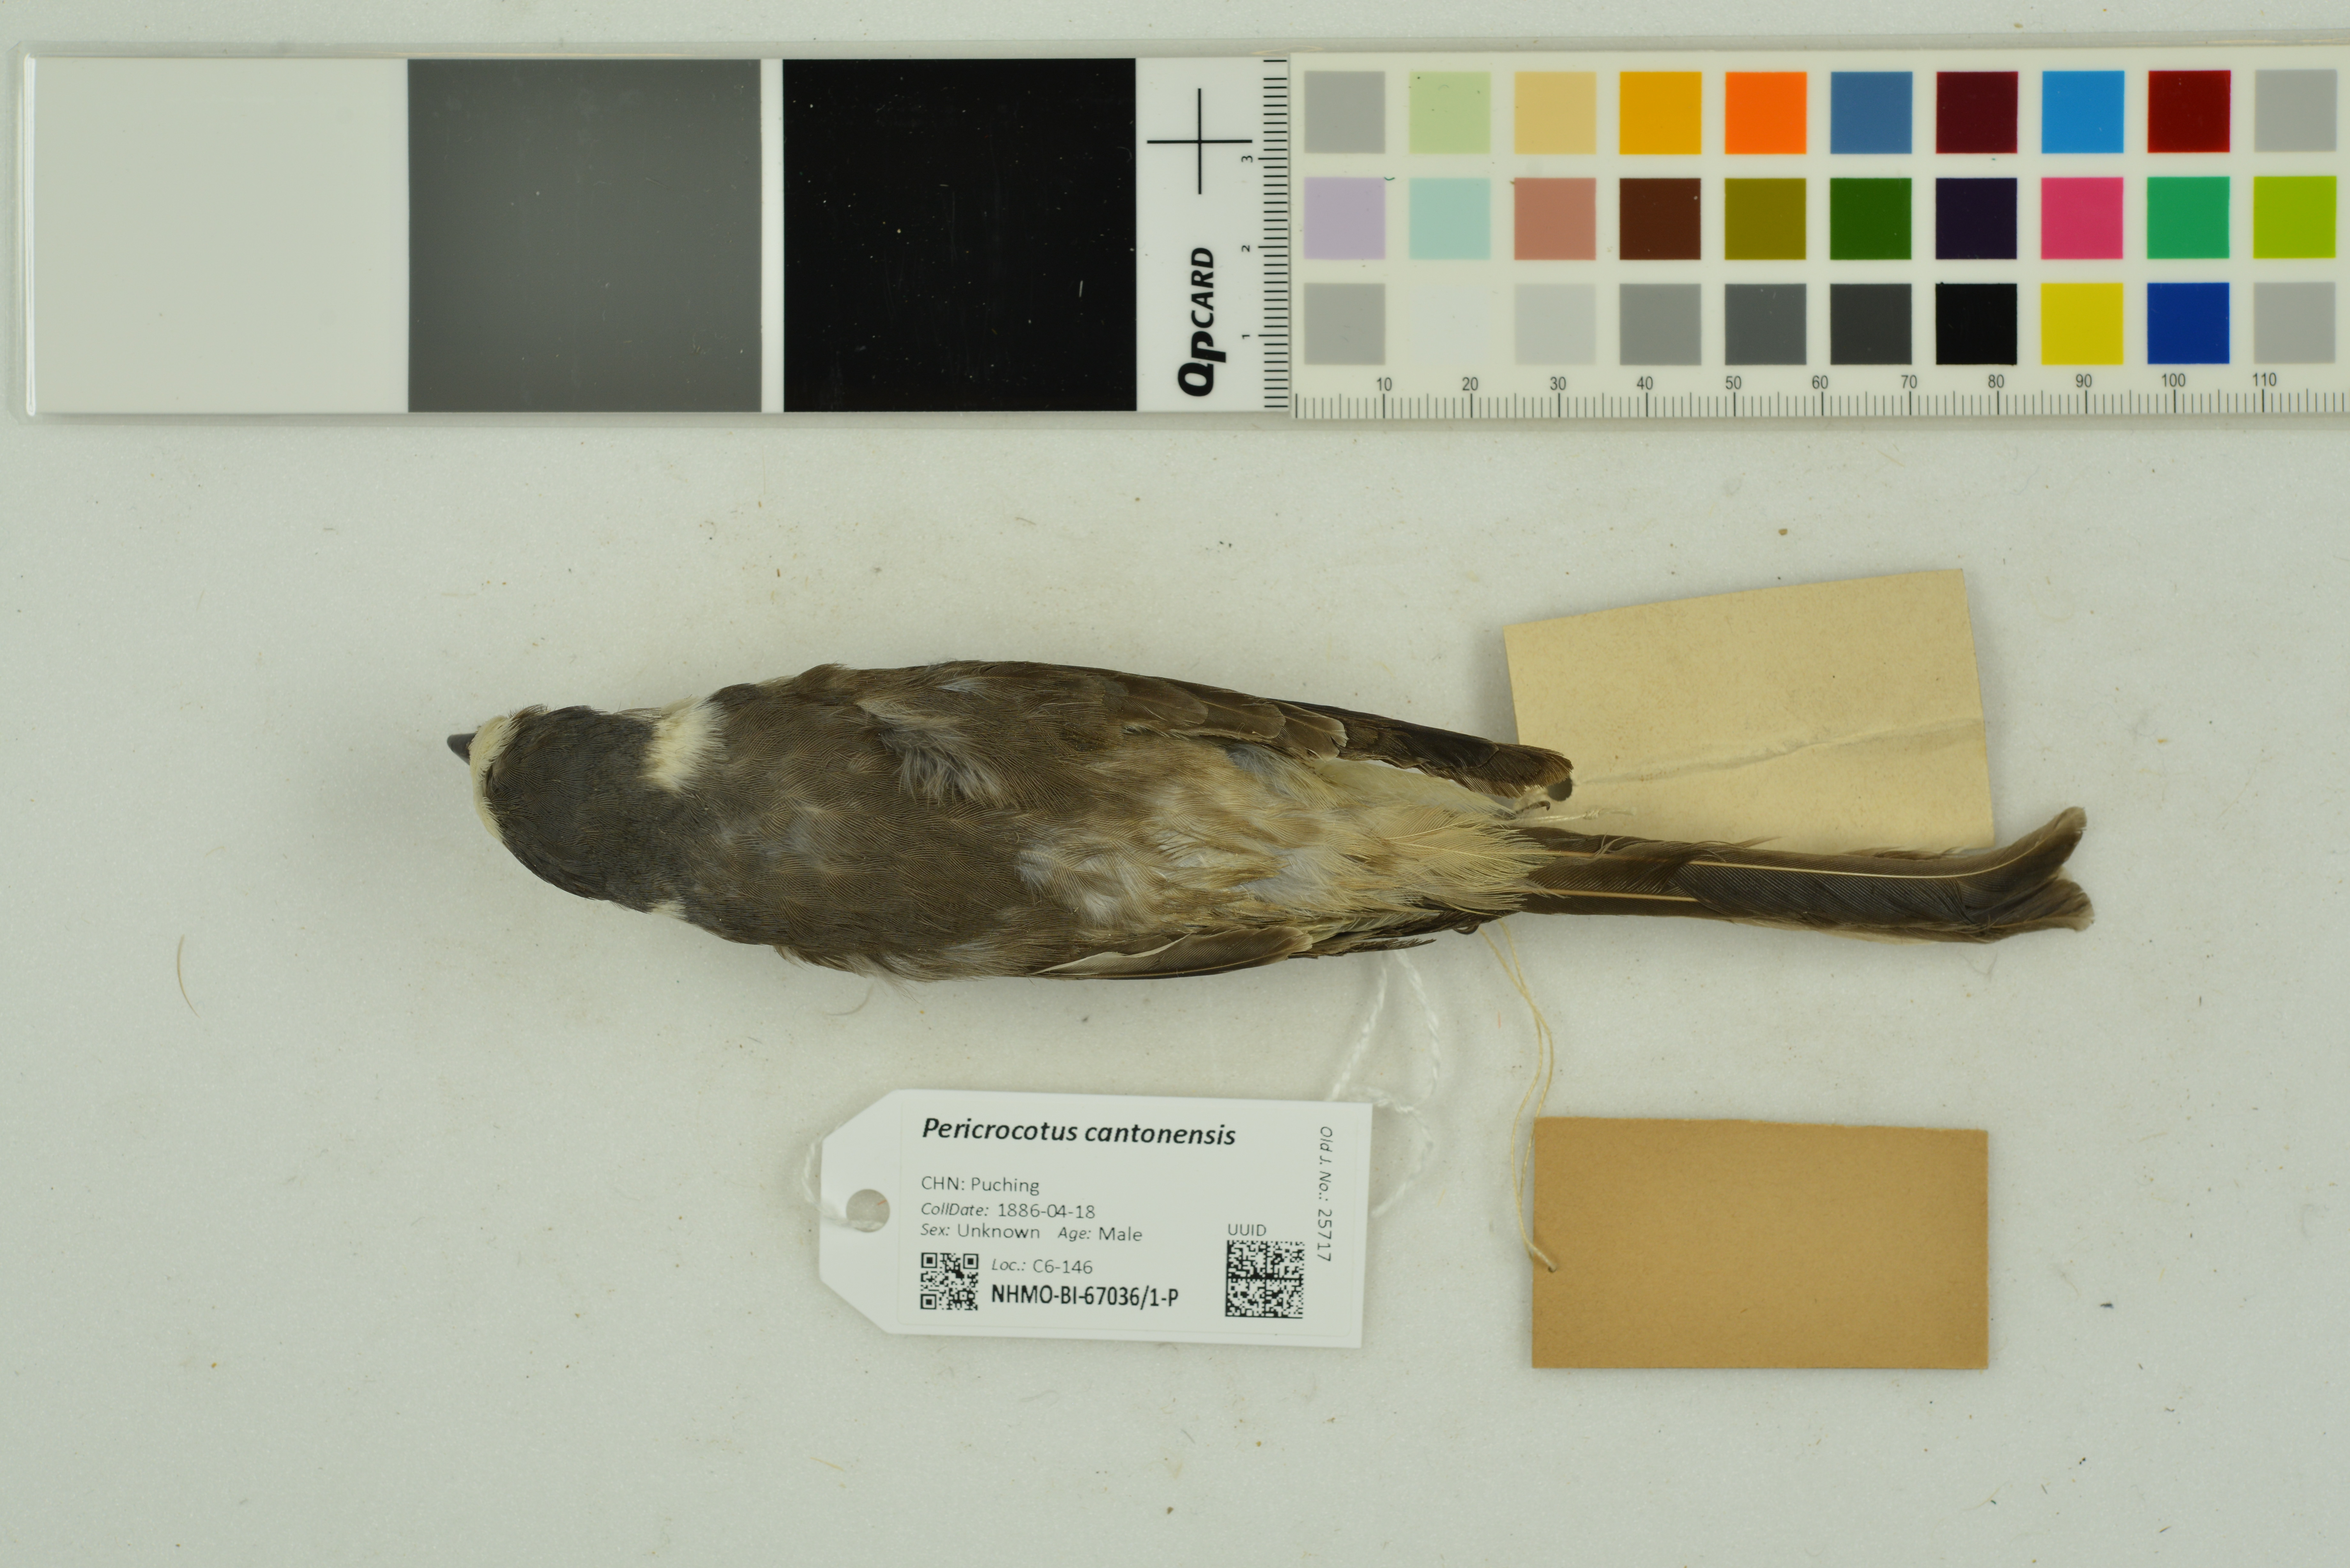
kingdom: Animalia
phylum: Chordata
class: Aves
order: Passeriformes
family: Campephagidae
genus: Pericrocotus
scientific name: Pericrocotus cantonensis
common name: Swinhoe's minivet
